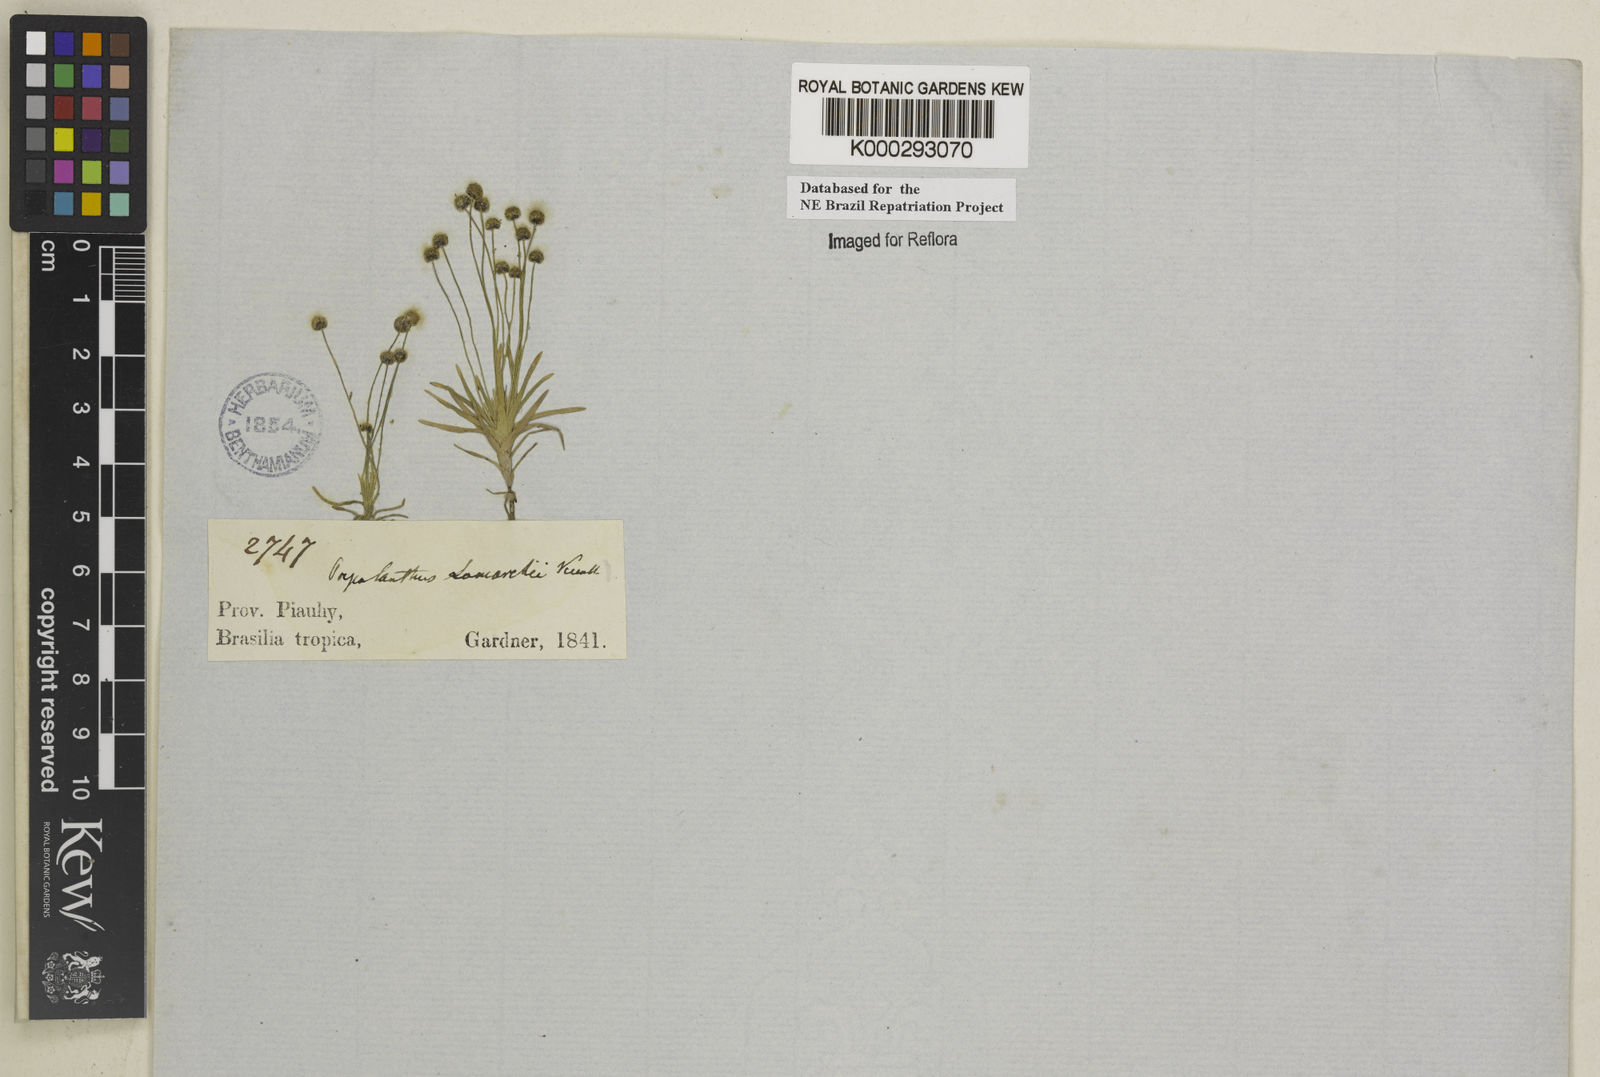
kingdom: Plantae
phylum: Tracheophyta
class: Liliopsida
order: Poales
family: Eriocaulaceae
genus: Paepalanthus
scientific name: Paepalanthus lamarckii
